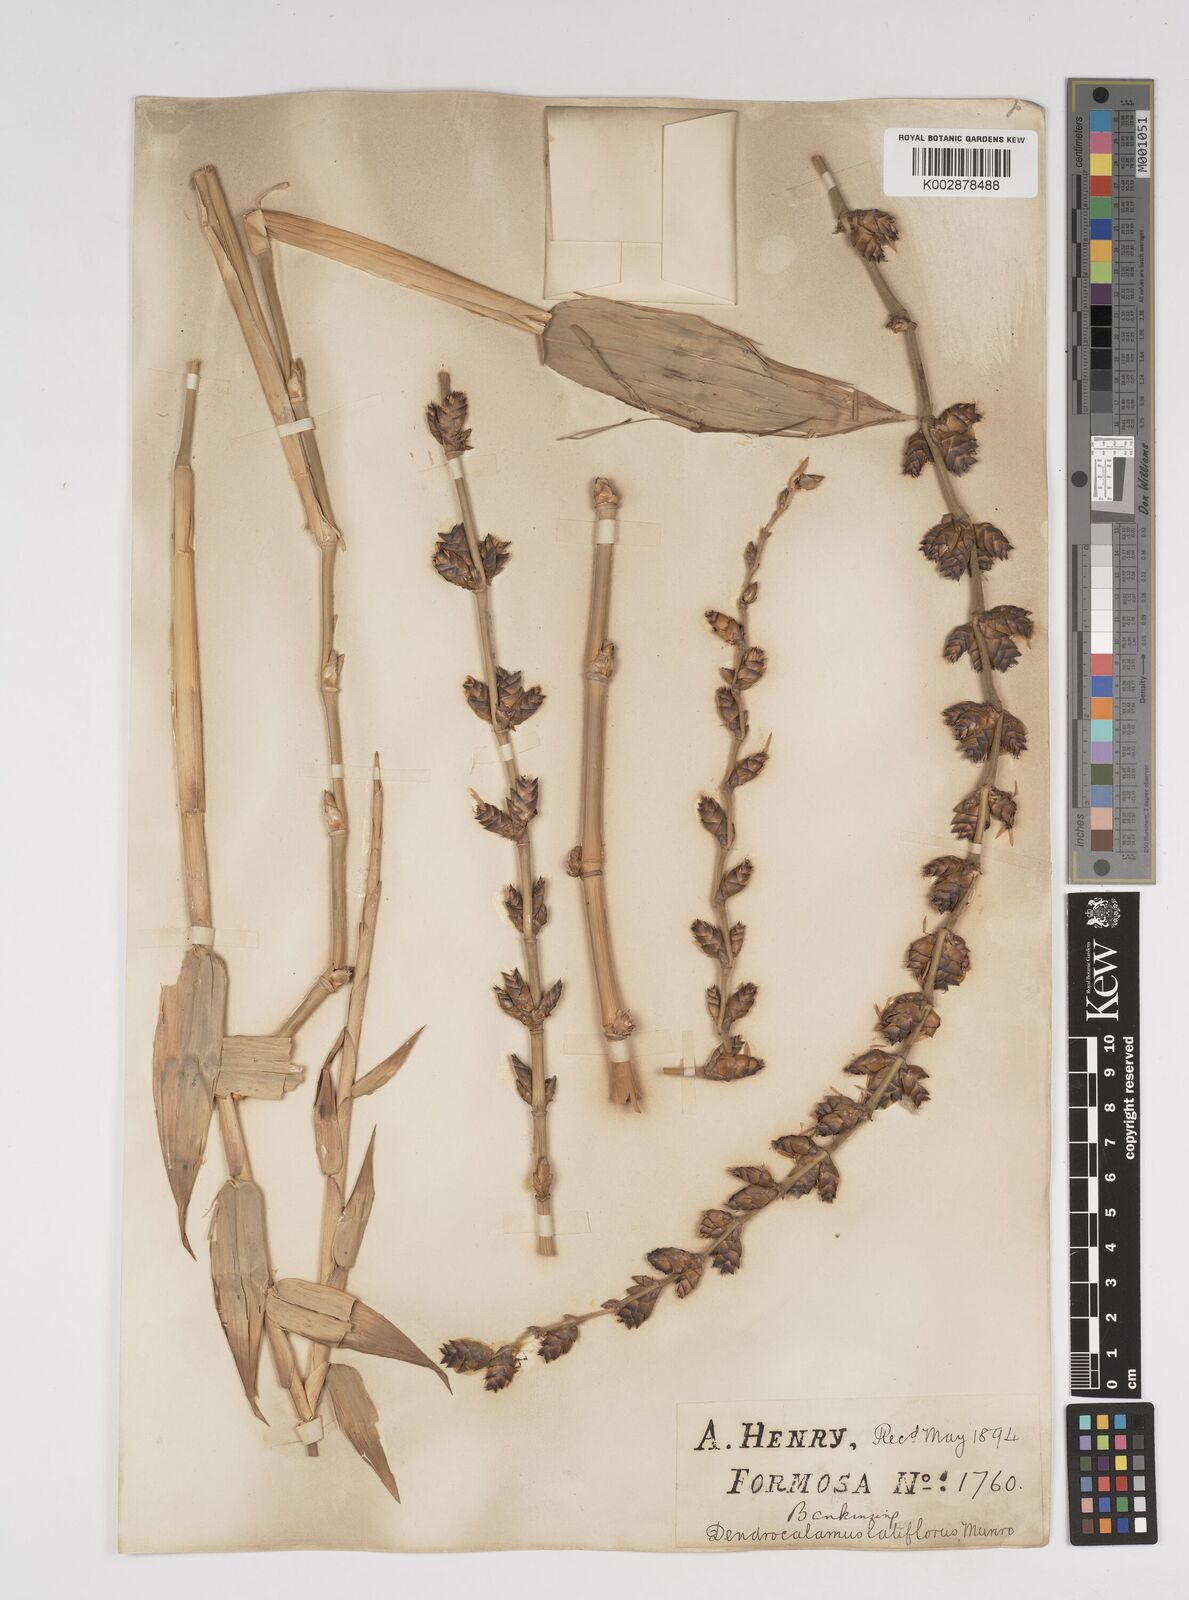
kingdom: Plantae
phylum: Tracheophyta
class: Liliopsida
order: Poales
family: Poaceae
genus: Dendrocalamus
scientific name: Dendrocalamus latiflorus
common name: Giant bamboo
